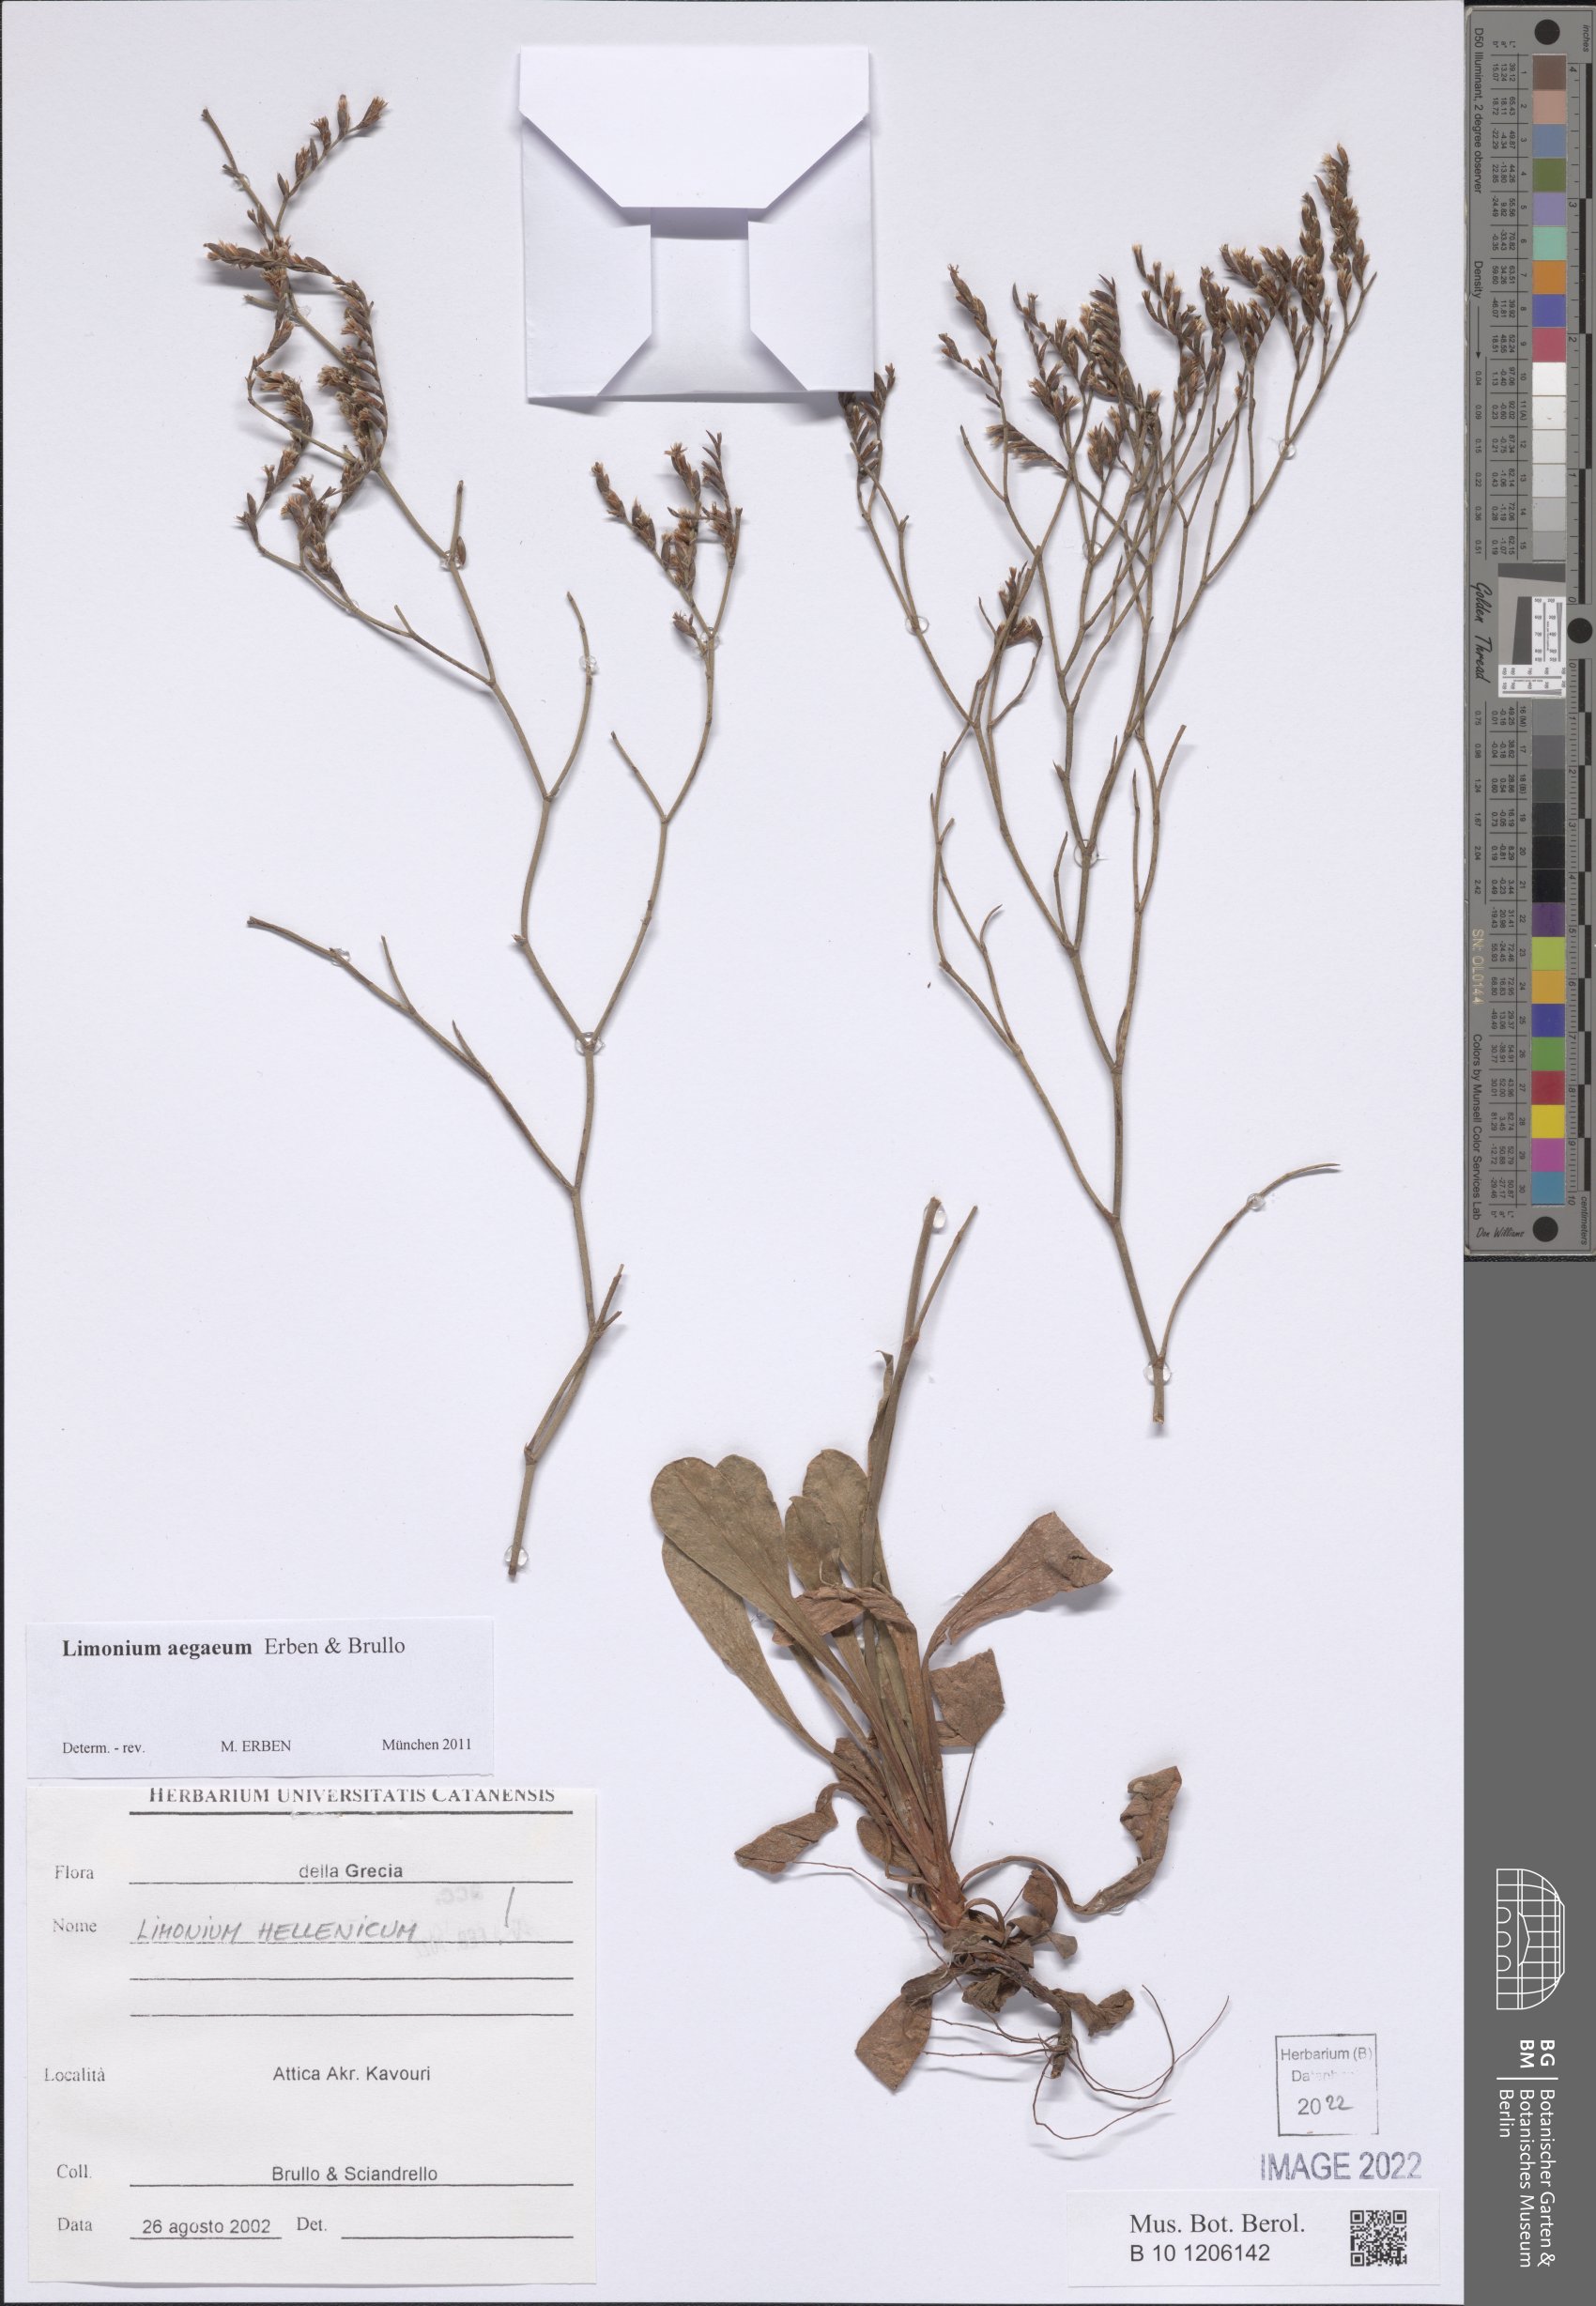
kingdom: Plantae
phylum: Tracheophyta
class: Magnoliopsida
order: Caryophyllales
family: Plumbaginaceae
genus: Limonium
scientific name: Limonium aegaeum
